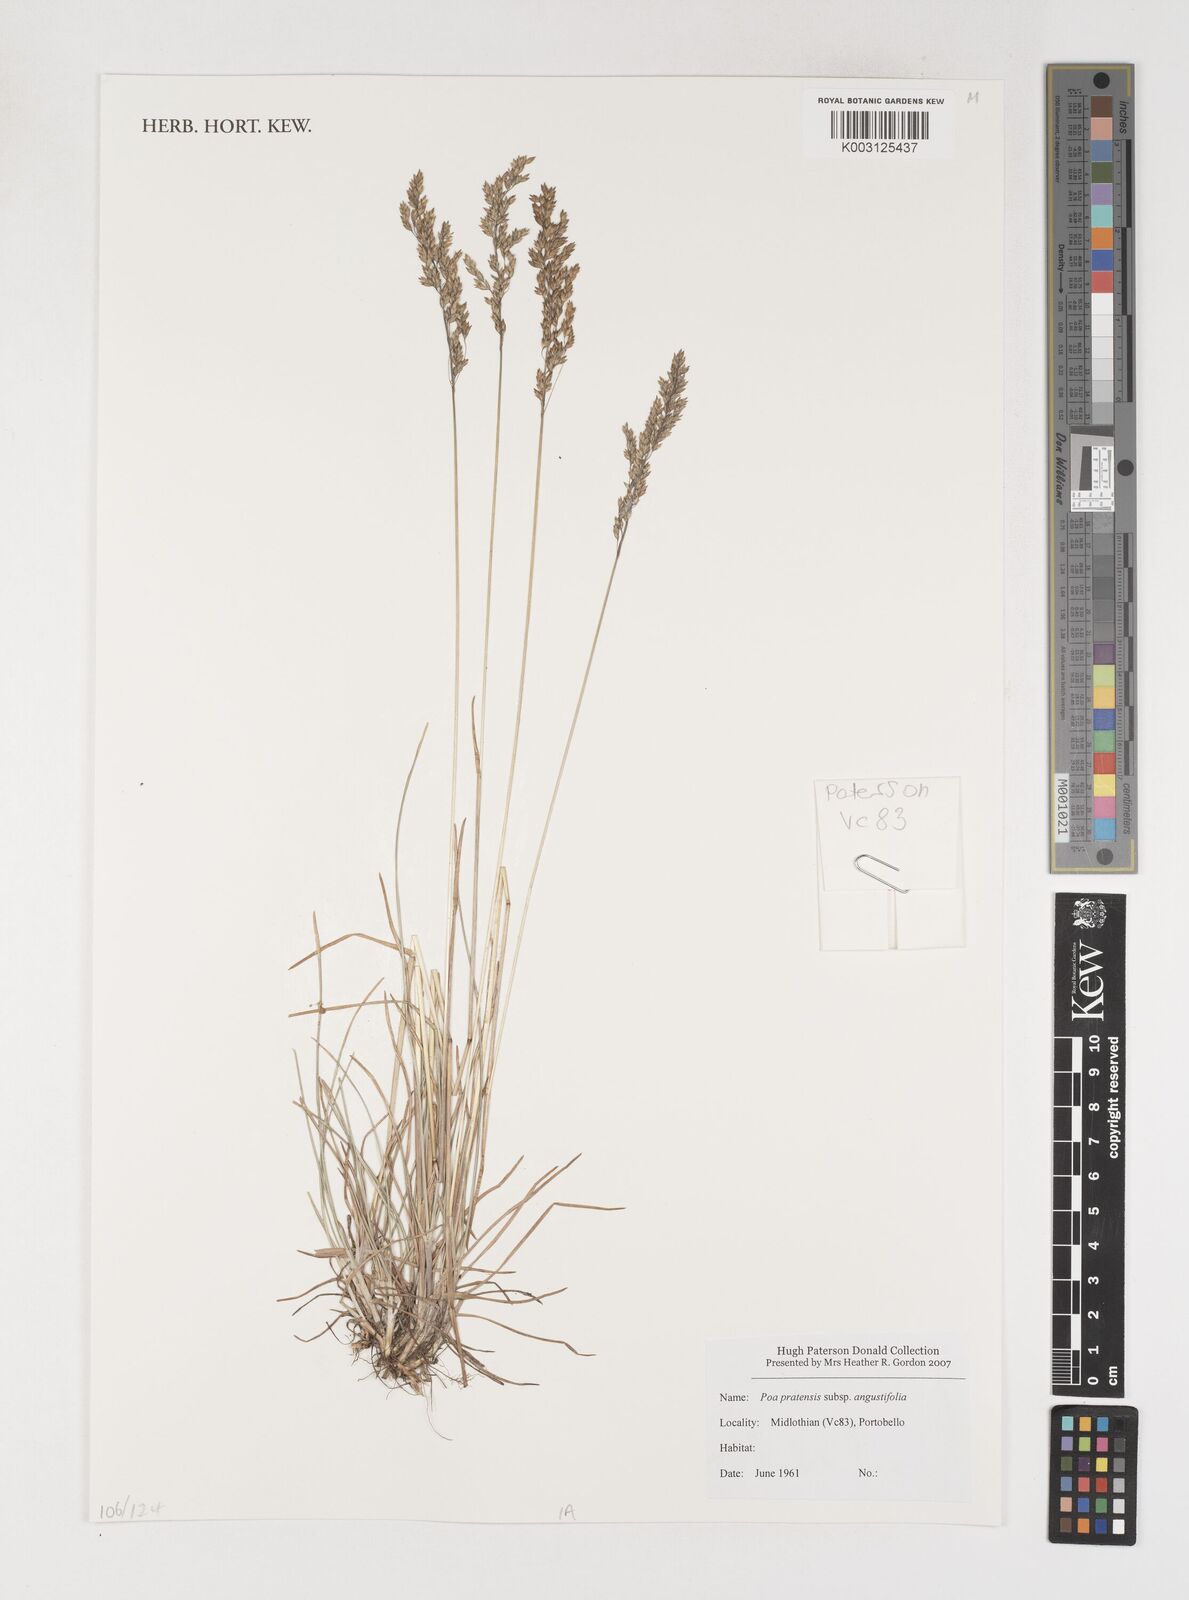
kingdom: Plantae
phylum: Tracheophyta
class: Liliopsida
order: Poales
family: Poaceae
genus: Poa
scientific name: Poa angustifolia
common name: Narrow-leaved meadow-grass
